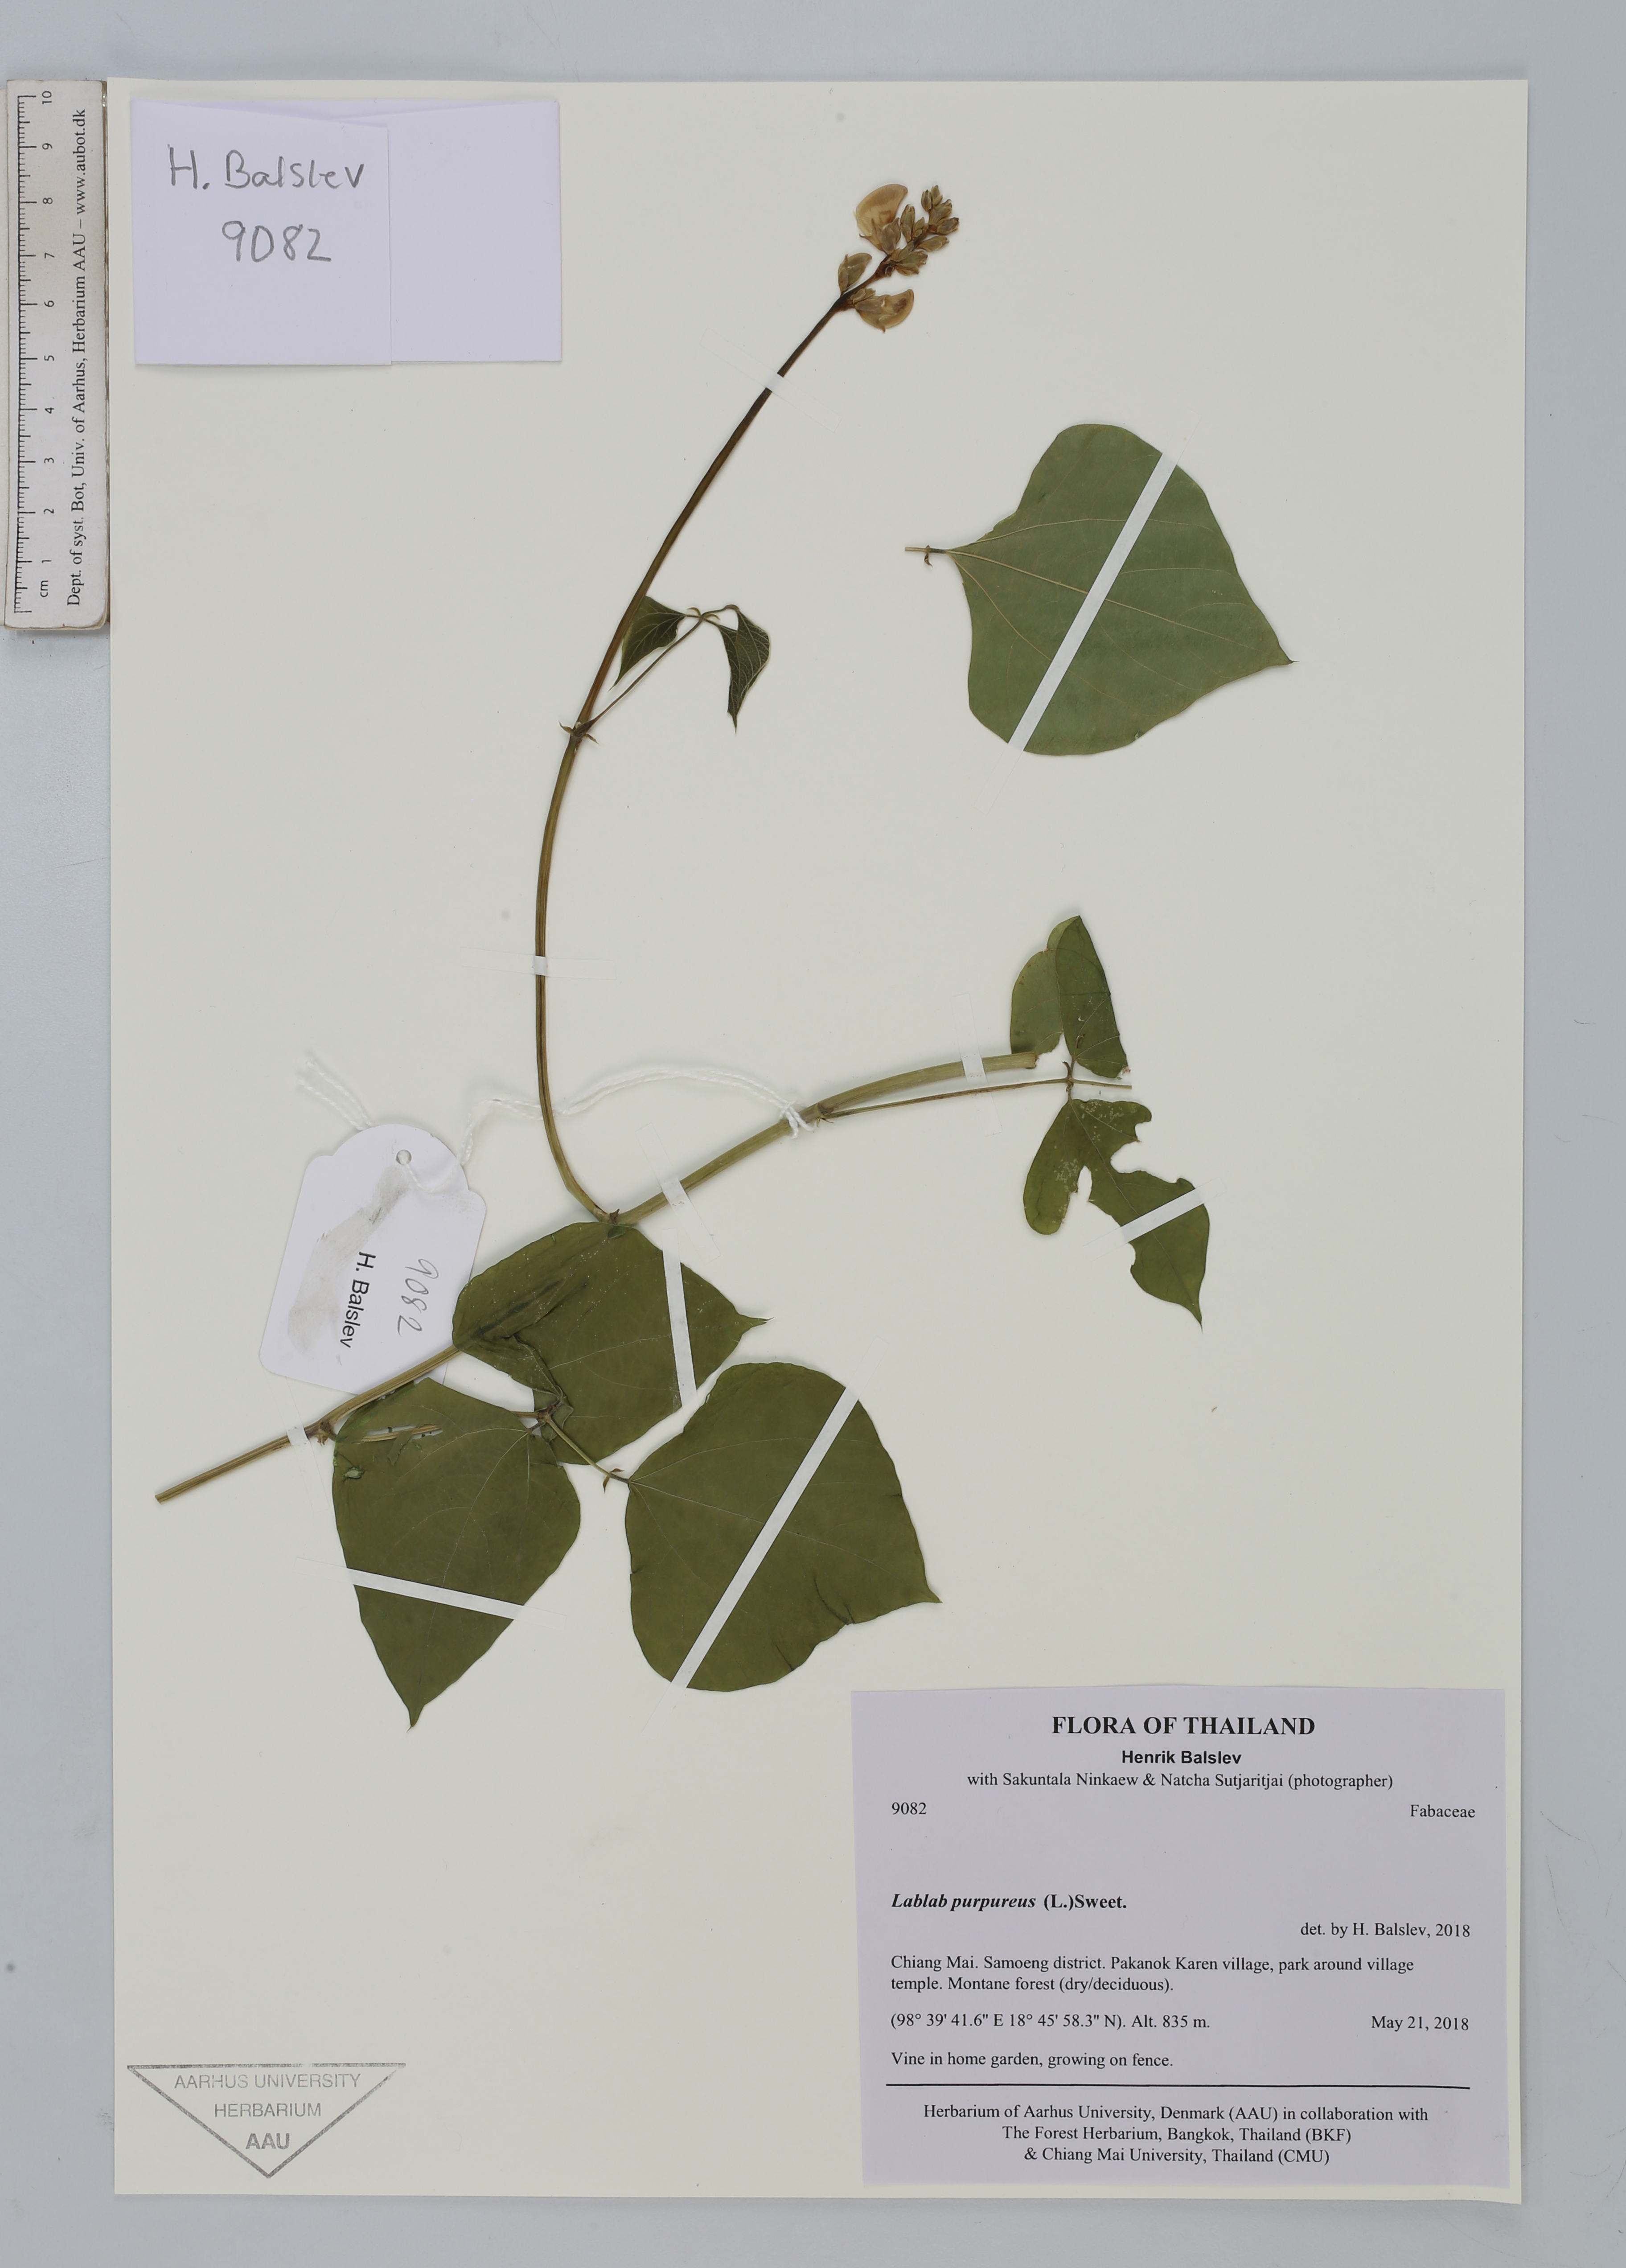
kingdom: Plantae
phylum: Tracheophyta
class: Magnoliopsida
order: Fabales
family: Fabaceae
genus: Lablab
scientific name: Lablab purpureus
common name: Lablab-bean
